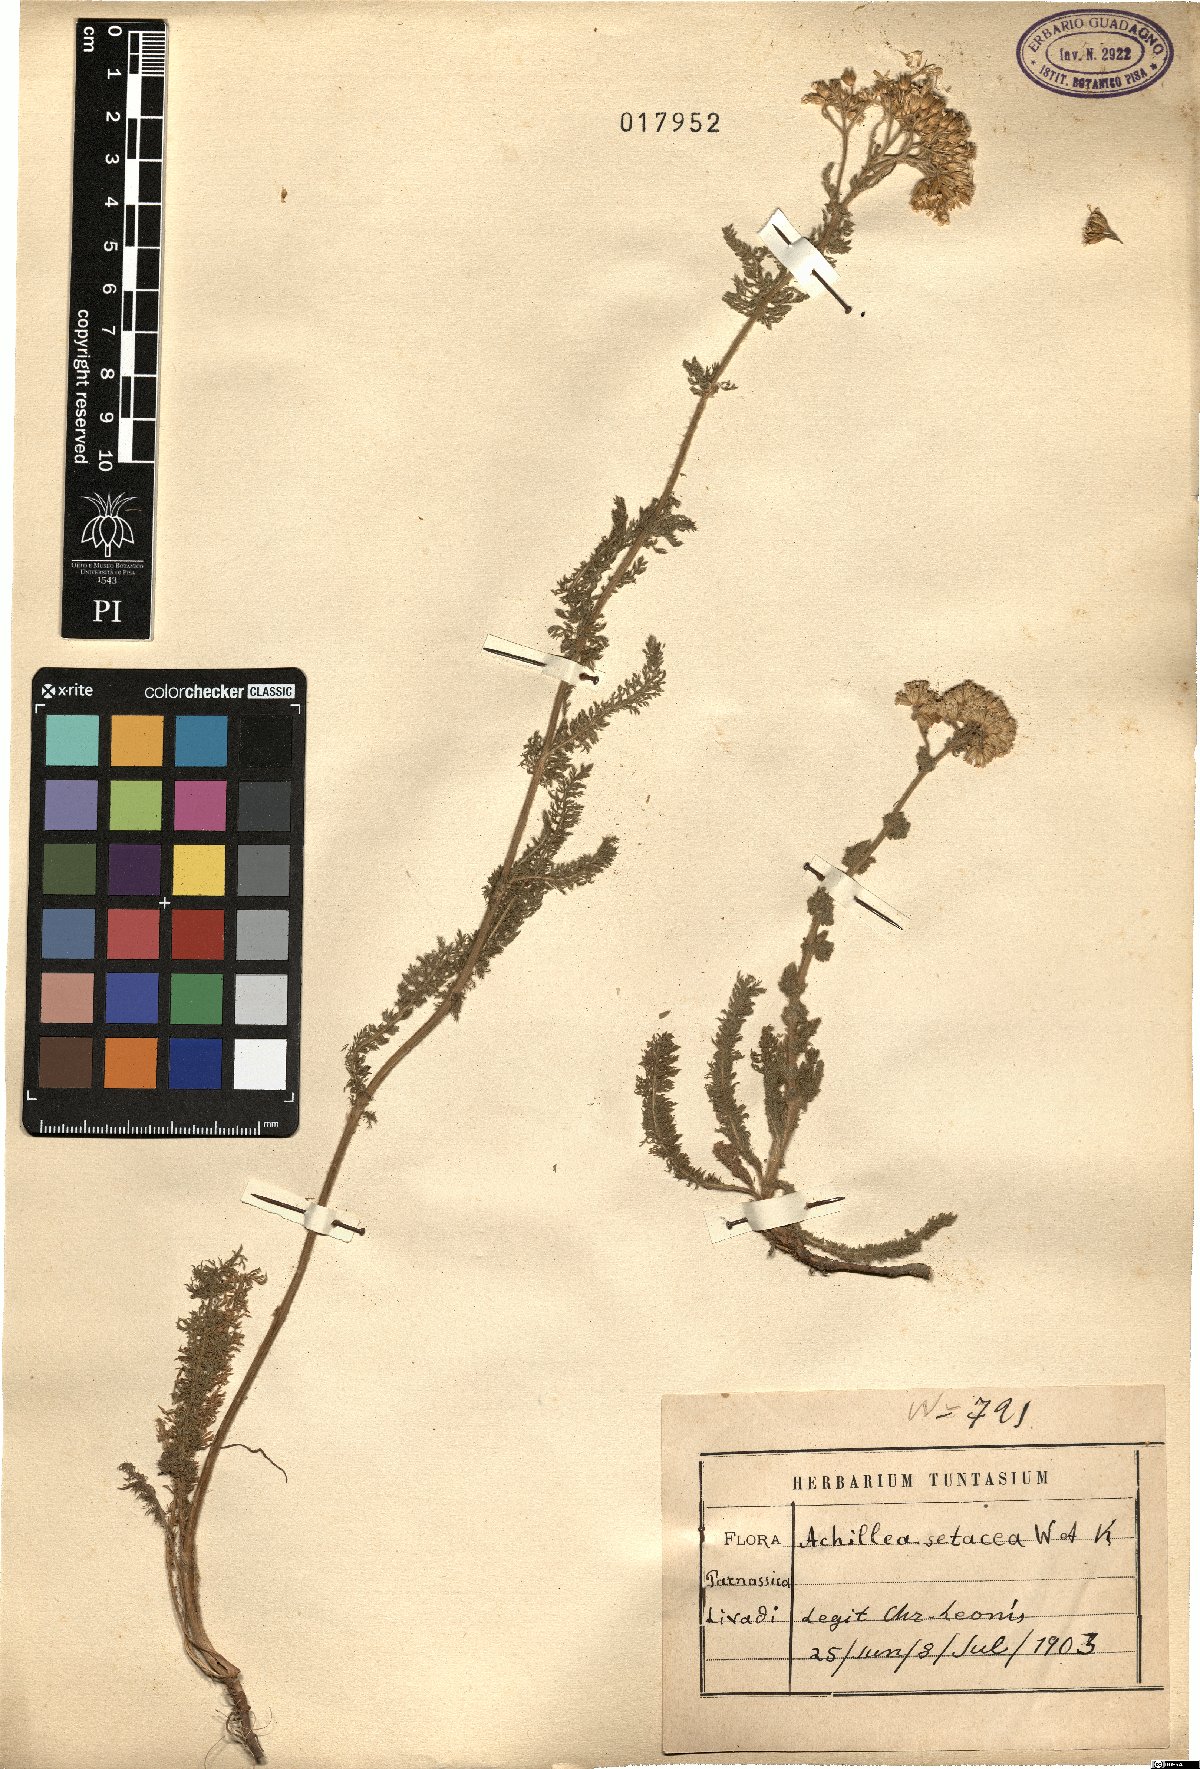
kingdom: Plantae
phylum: Tracheophyta
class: Magnoliopsida
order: Asterales
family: Asteraceae
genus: Achillea
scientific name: Achillea setacea
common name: Bristly yarrow
